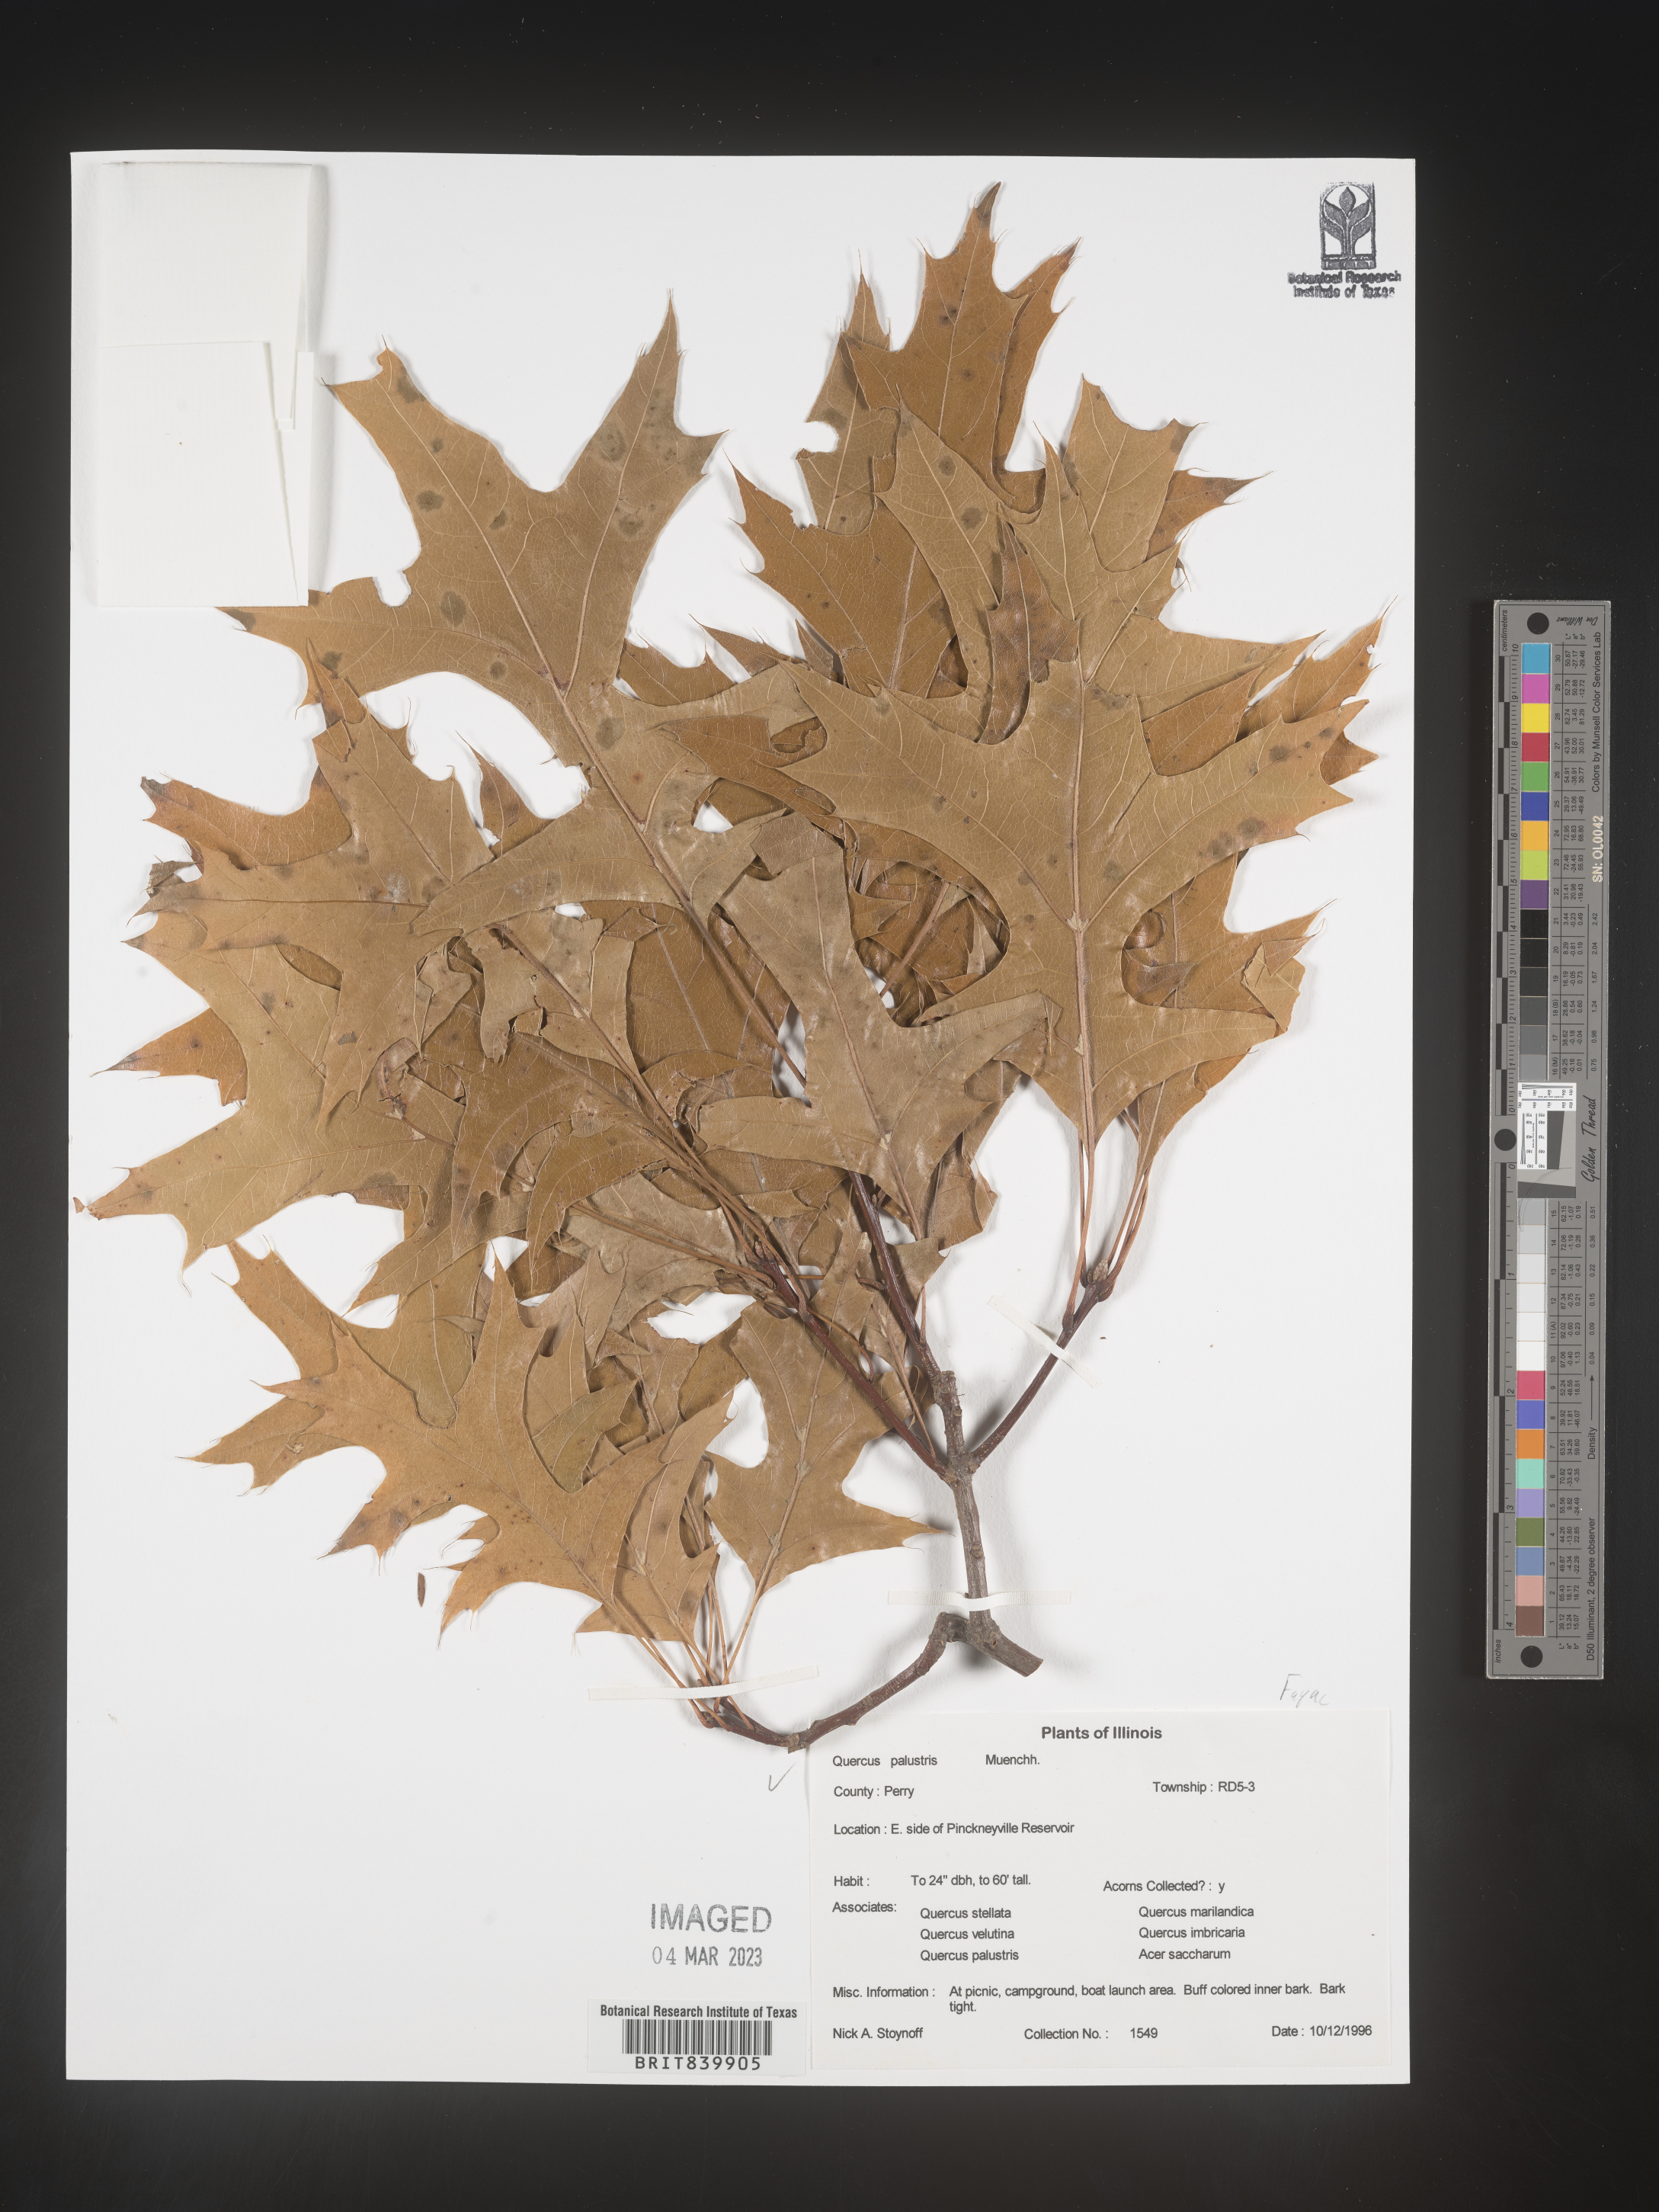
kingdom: Plantae
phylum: Tracheophyta
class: Magnoliopsida
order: Fagales
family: Fagaceae
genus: Quercus
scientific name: Quercus palustris
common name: Pin oak
